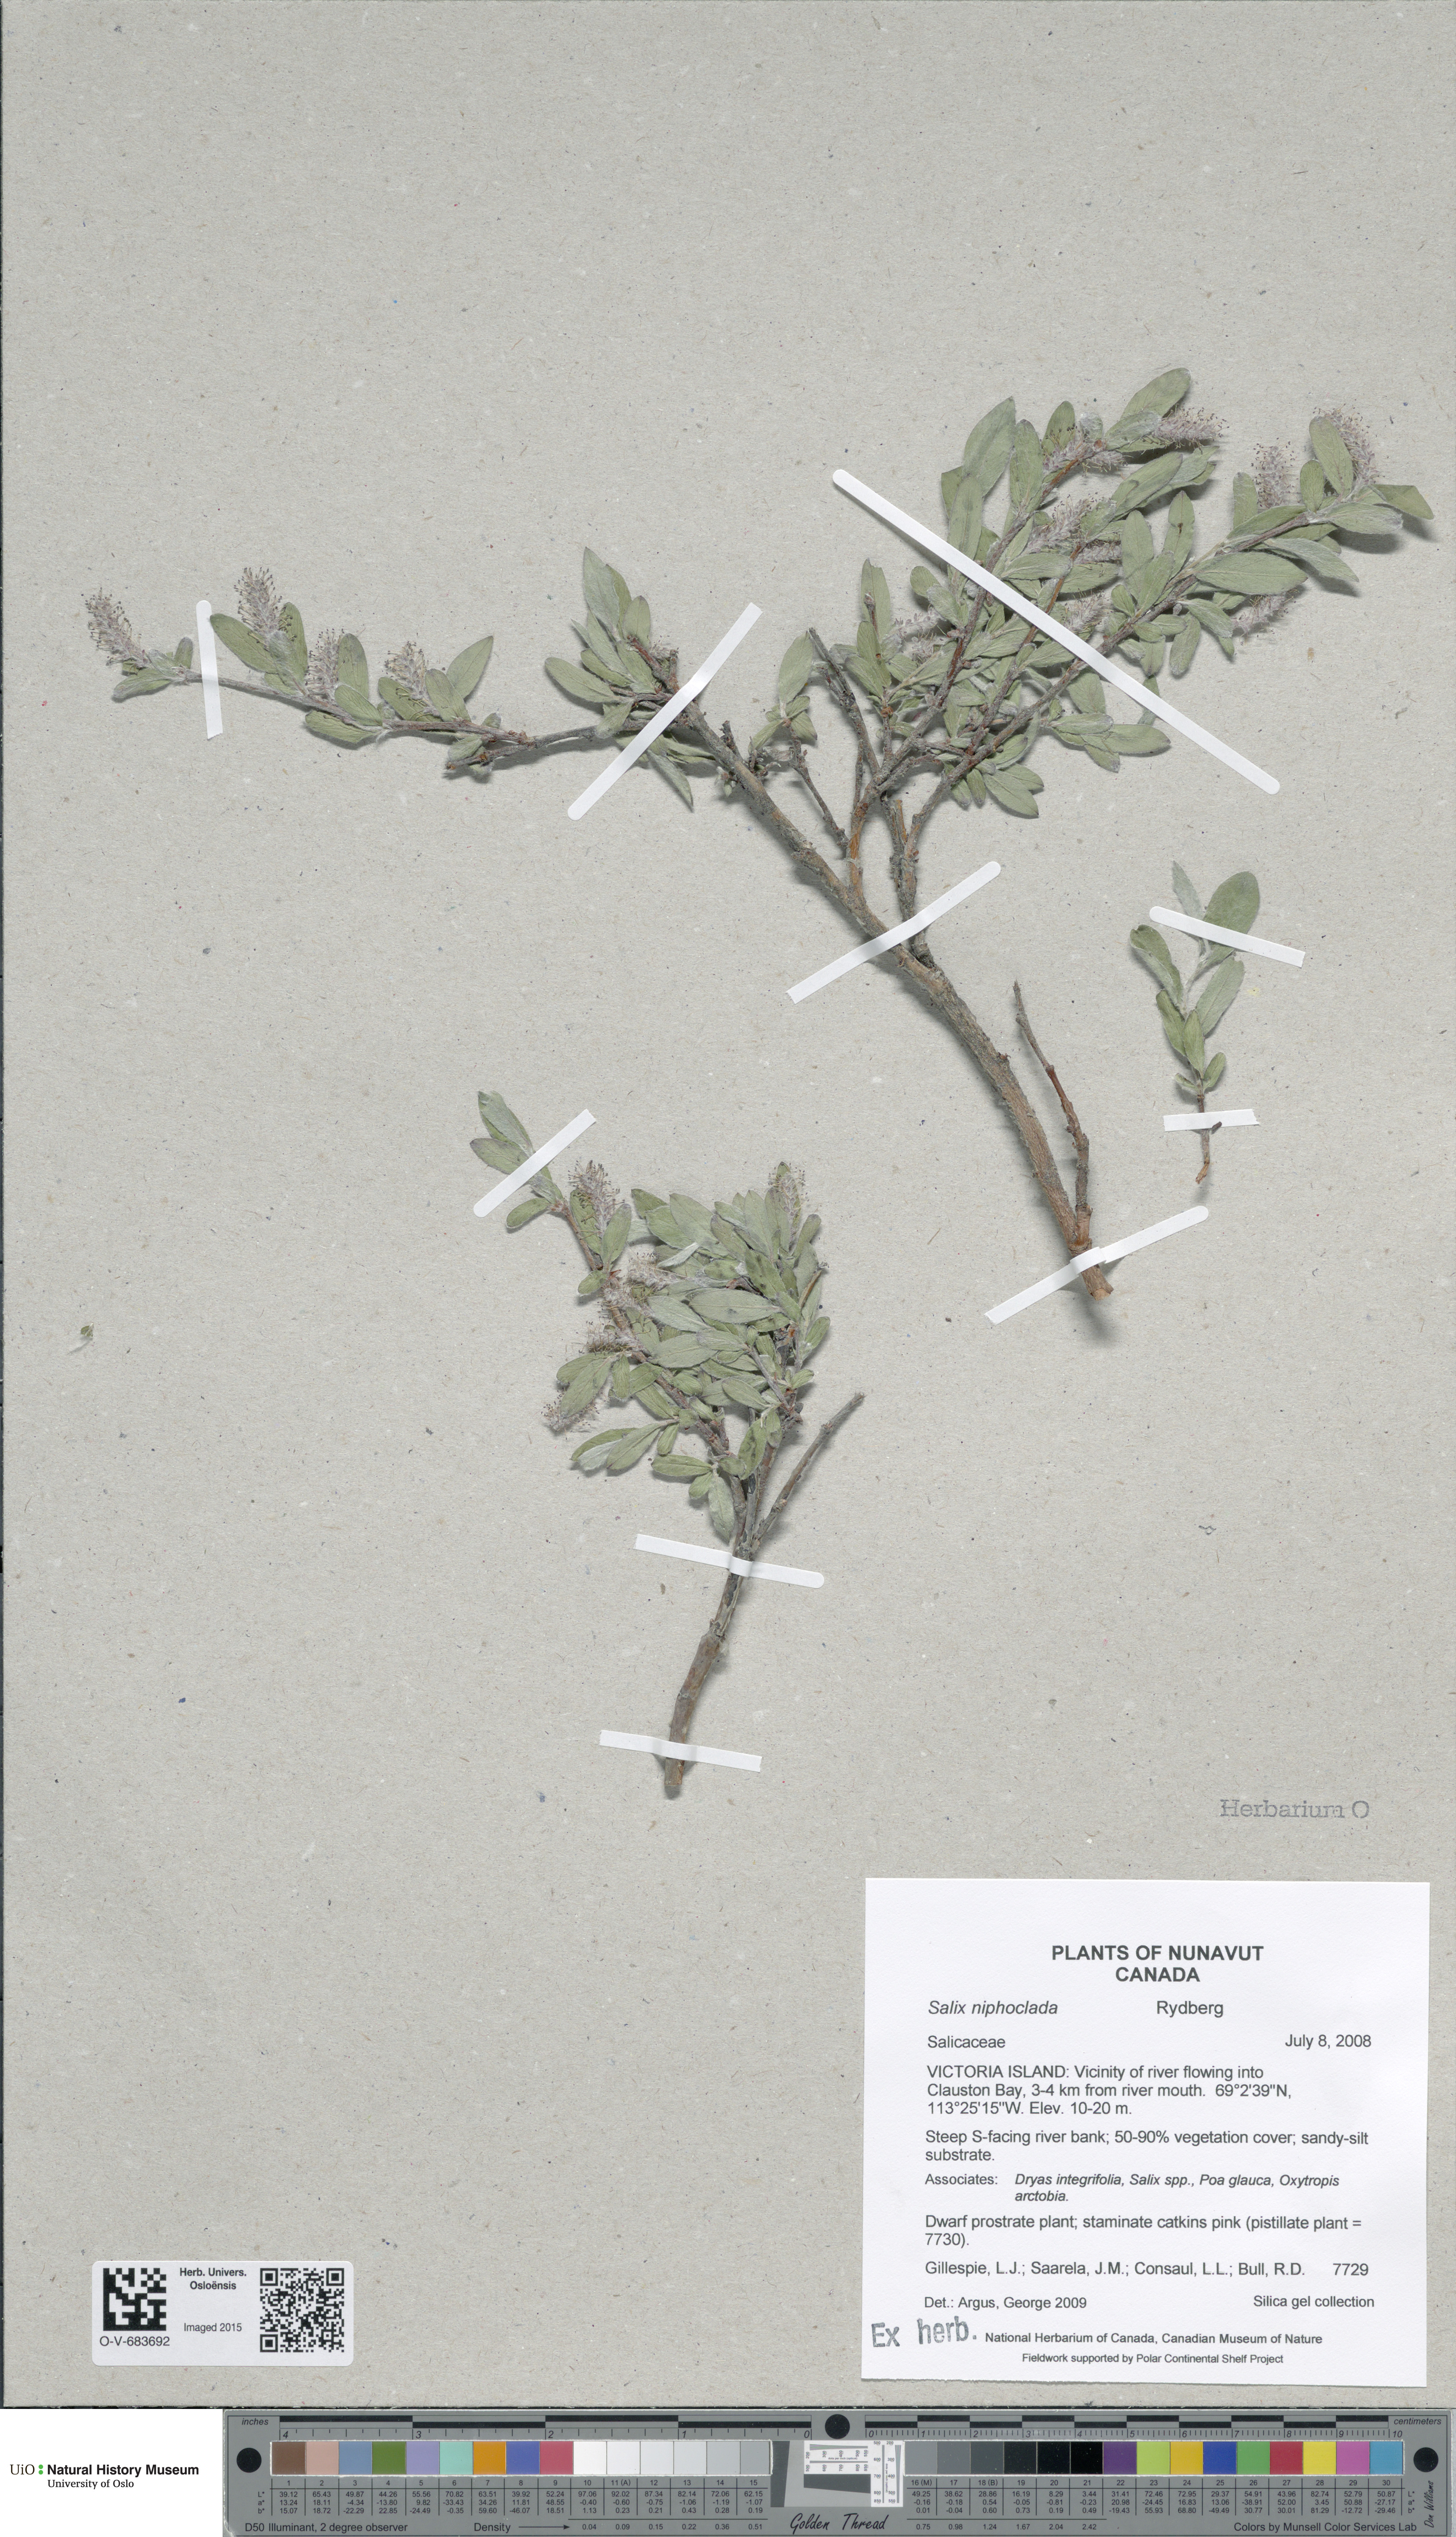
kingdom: Plantae
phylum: Tracheophyta
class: Magnoliopsida
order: Malpighiales
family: Salicaceae
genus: Salix
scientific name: Salix niphoclada
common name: Barren-ground willow
